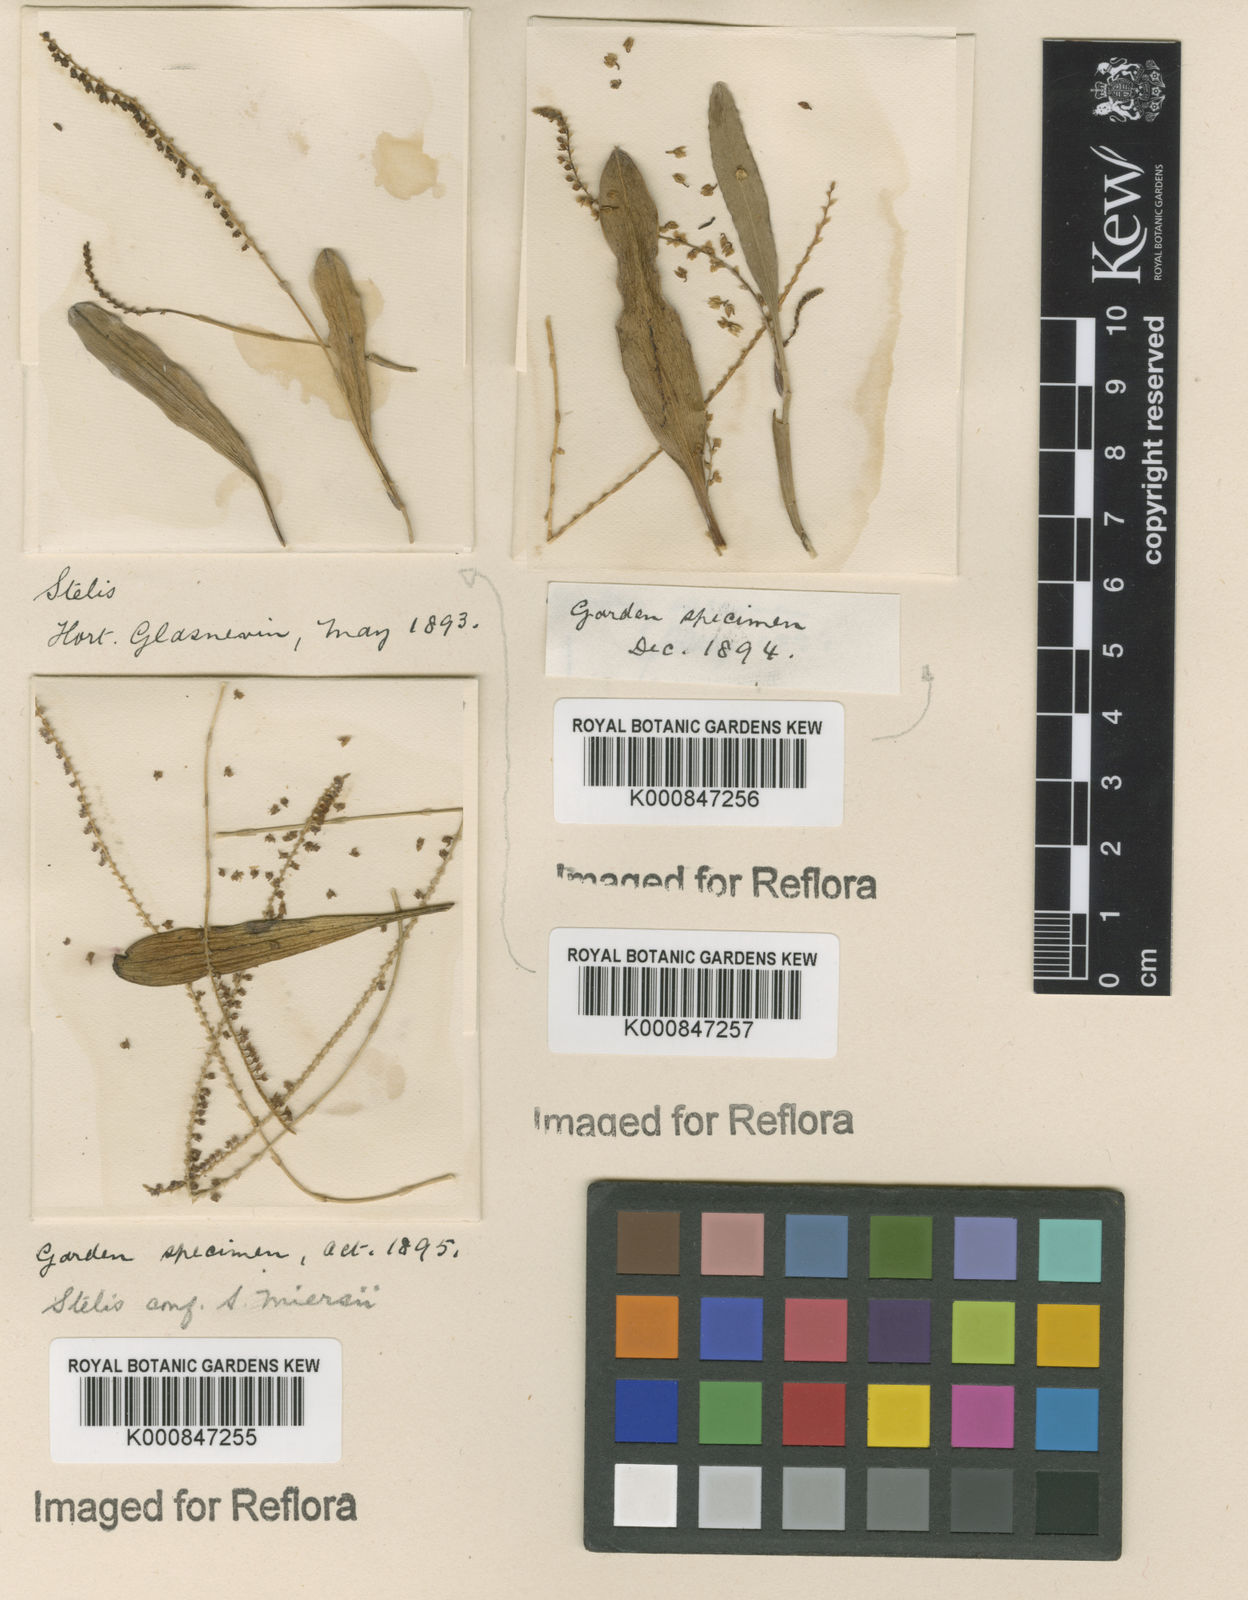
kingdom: Plantae
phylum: Tracheophyta
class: Liliopsida
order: Asparagales
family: Orchidaceae
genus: Stelis
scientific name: Stelis aprica
